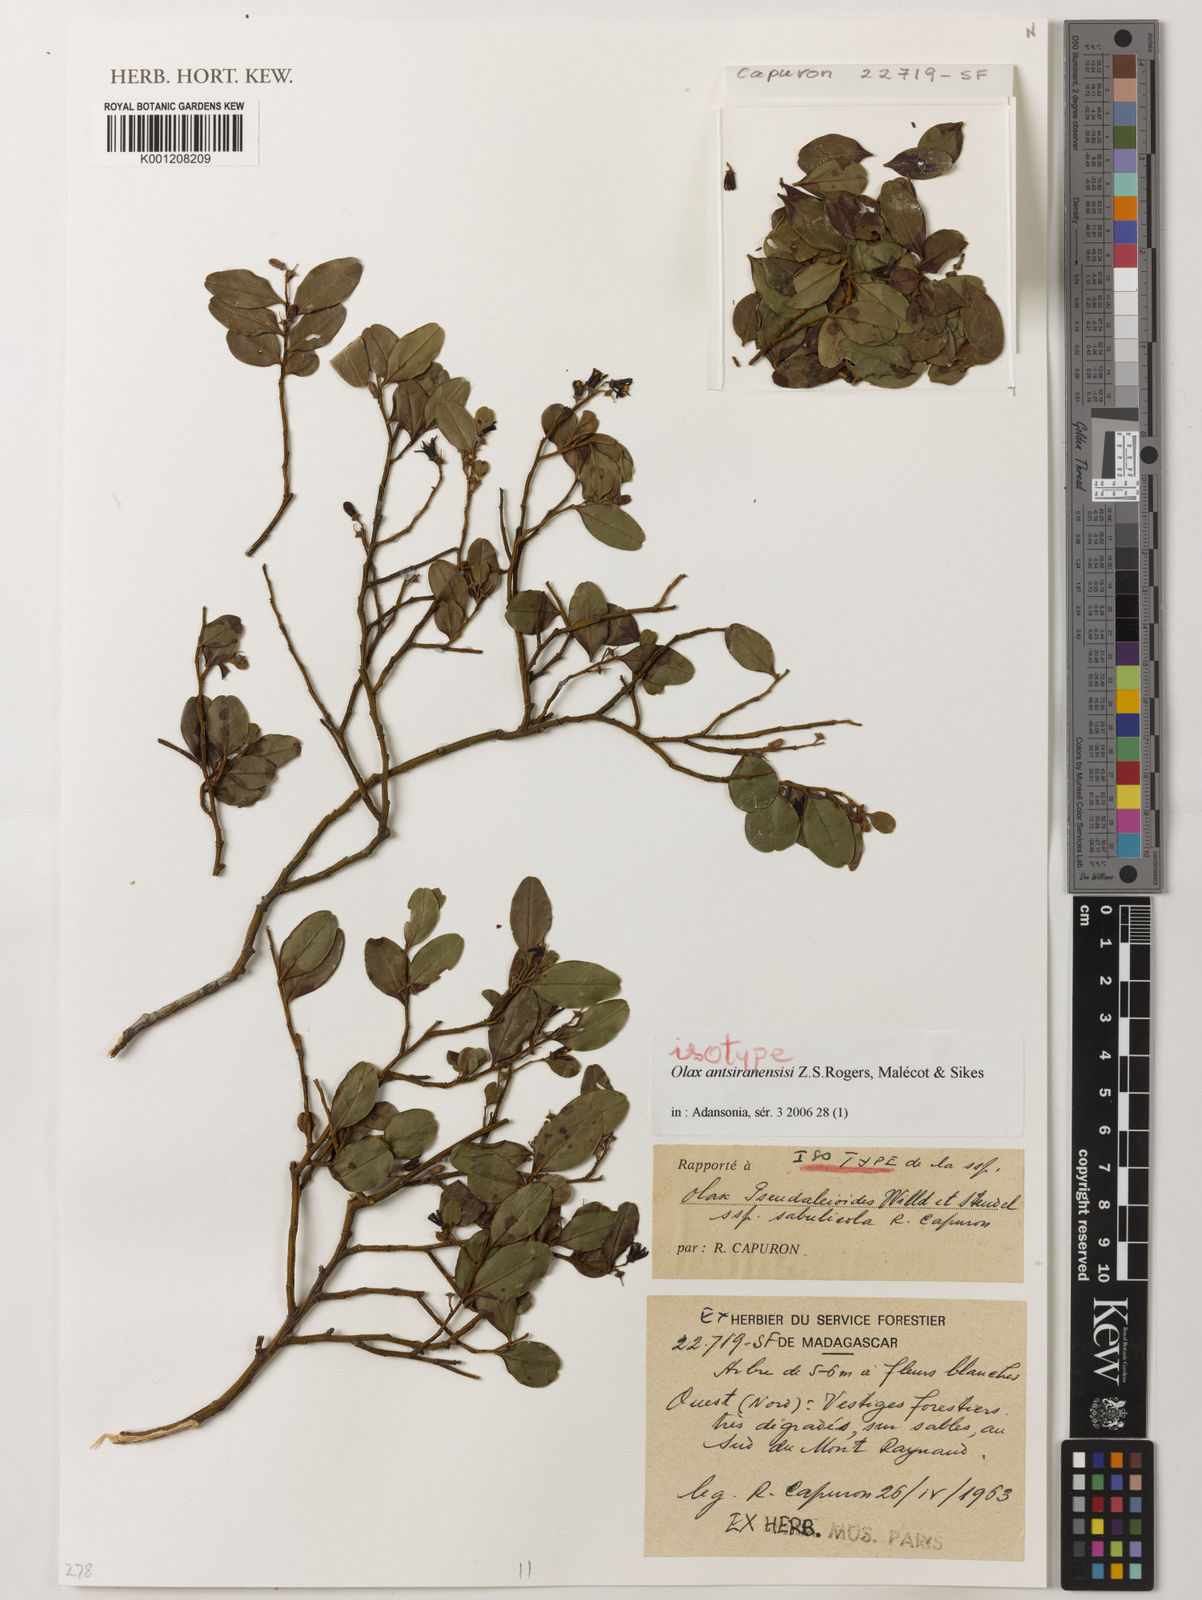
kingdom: Plantae
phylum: Tracheophyta
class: Magnoliopsida
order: Santalales
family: Olacaceae
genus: Olax
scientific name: Olax
